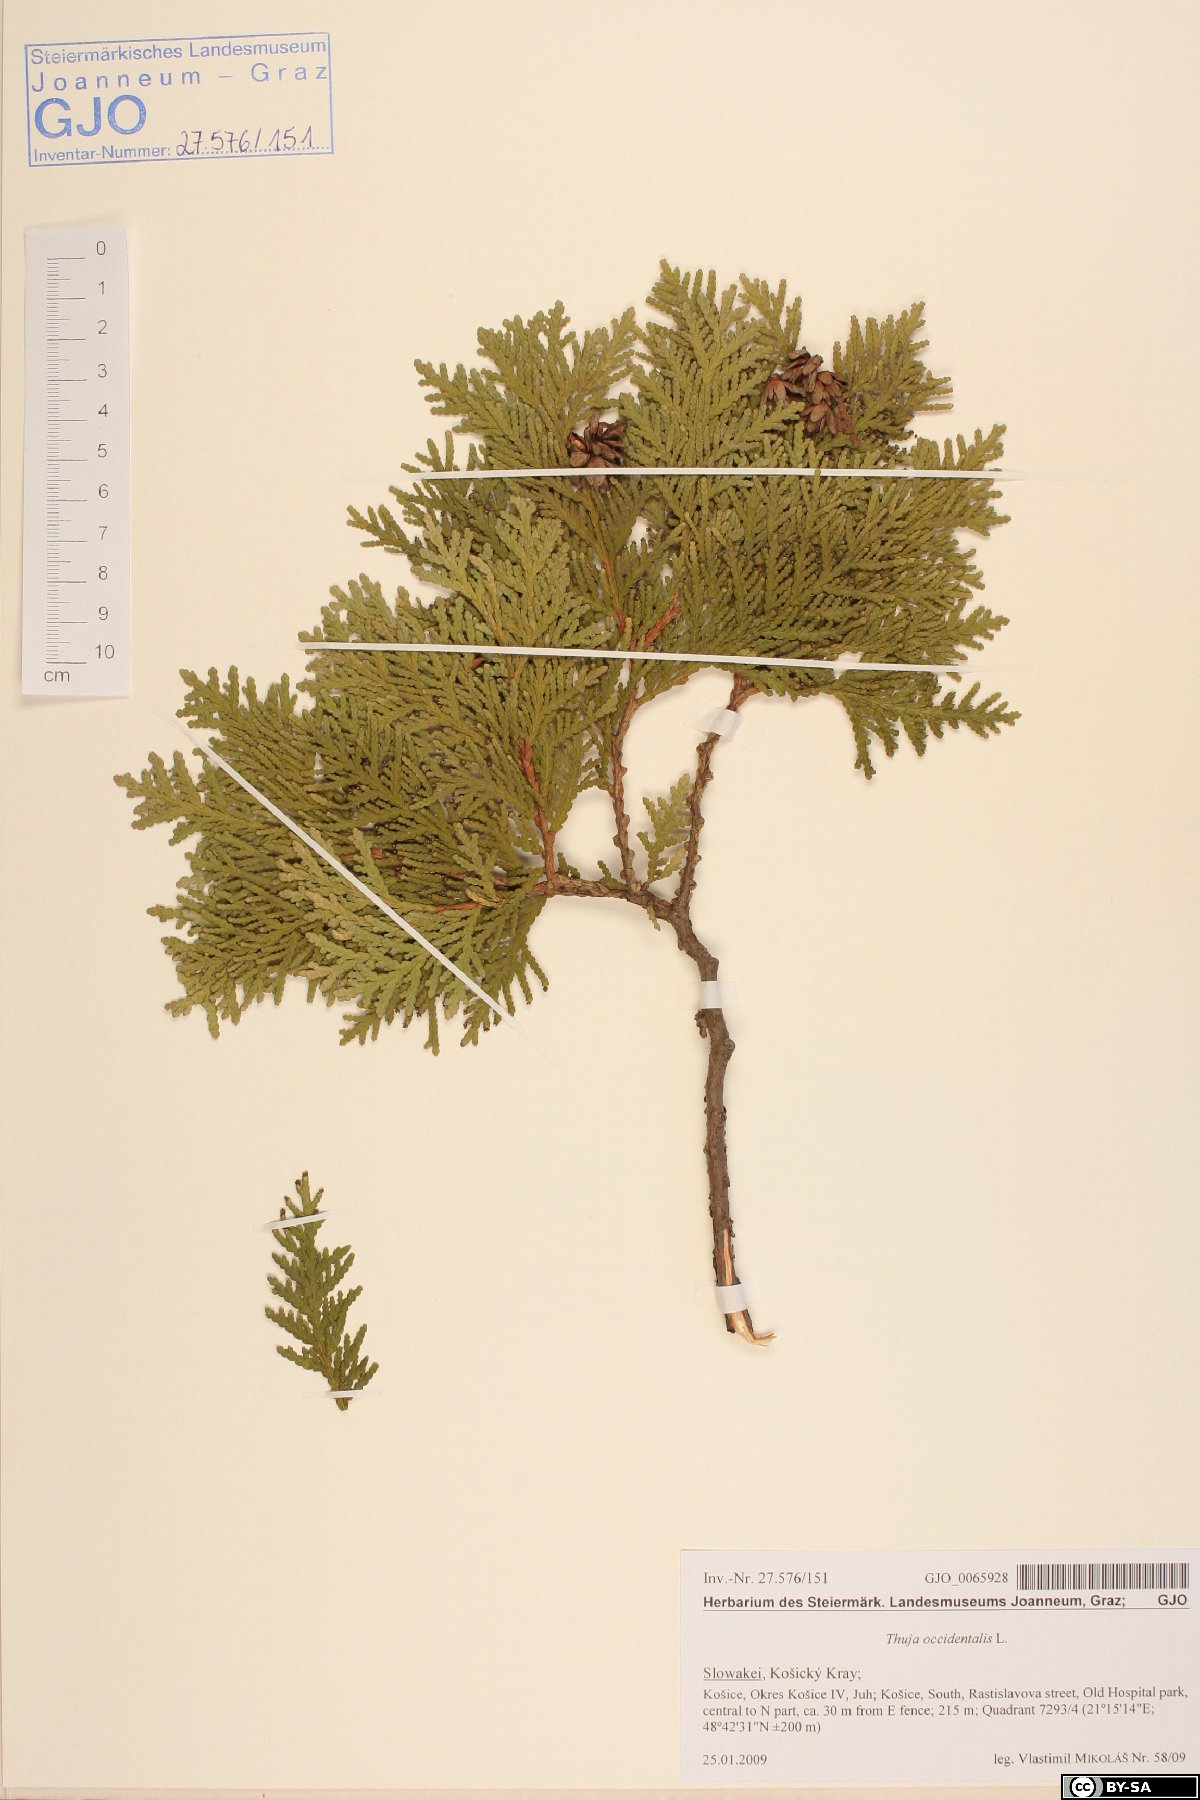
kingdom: Plantae
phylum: Tracheophyta
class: Pinopsida
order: Pinales
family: Cupressaceae
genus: Thuja
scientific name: Thuja occidentalis
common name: Northern white-cedar
